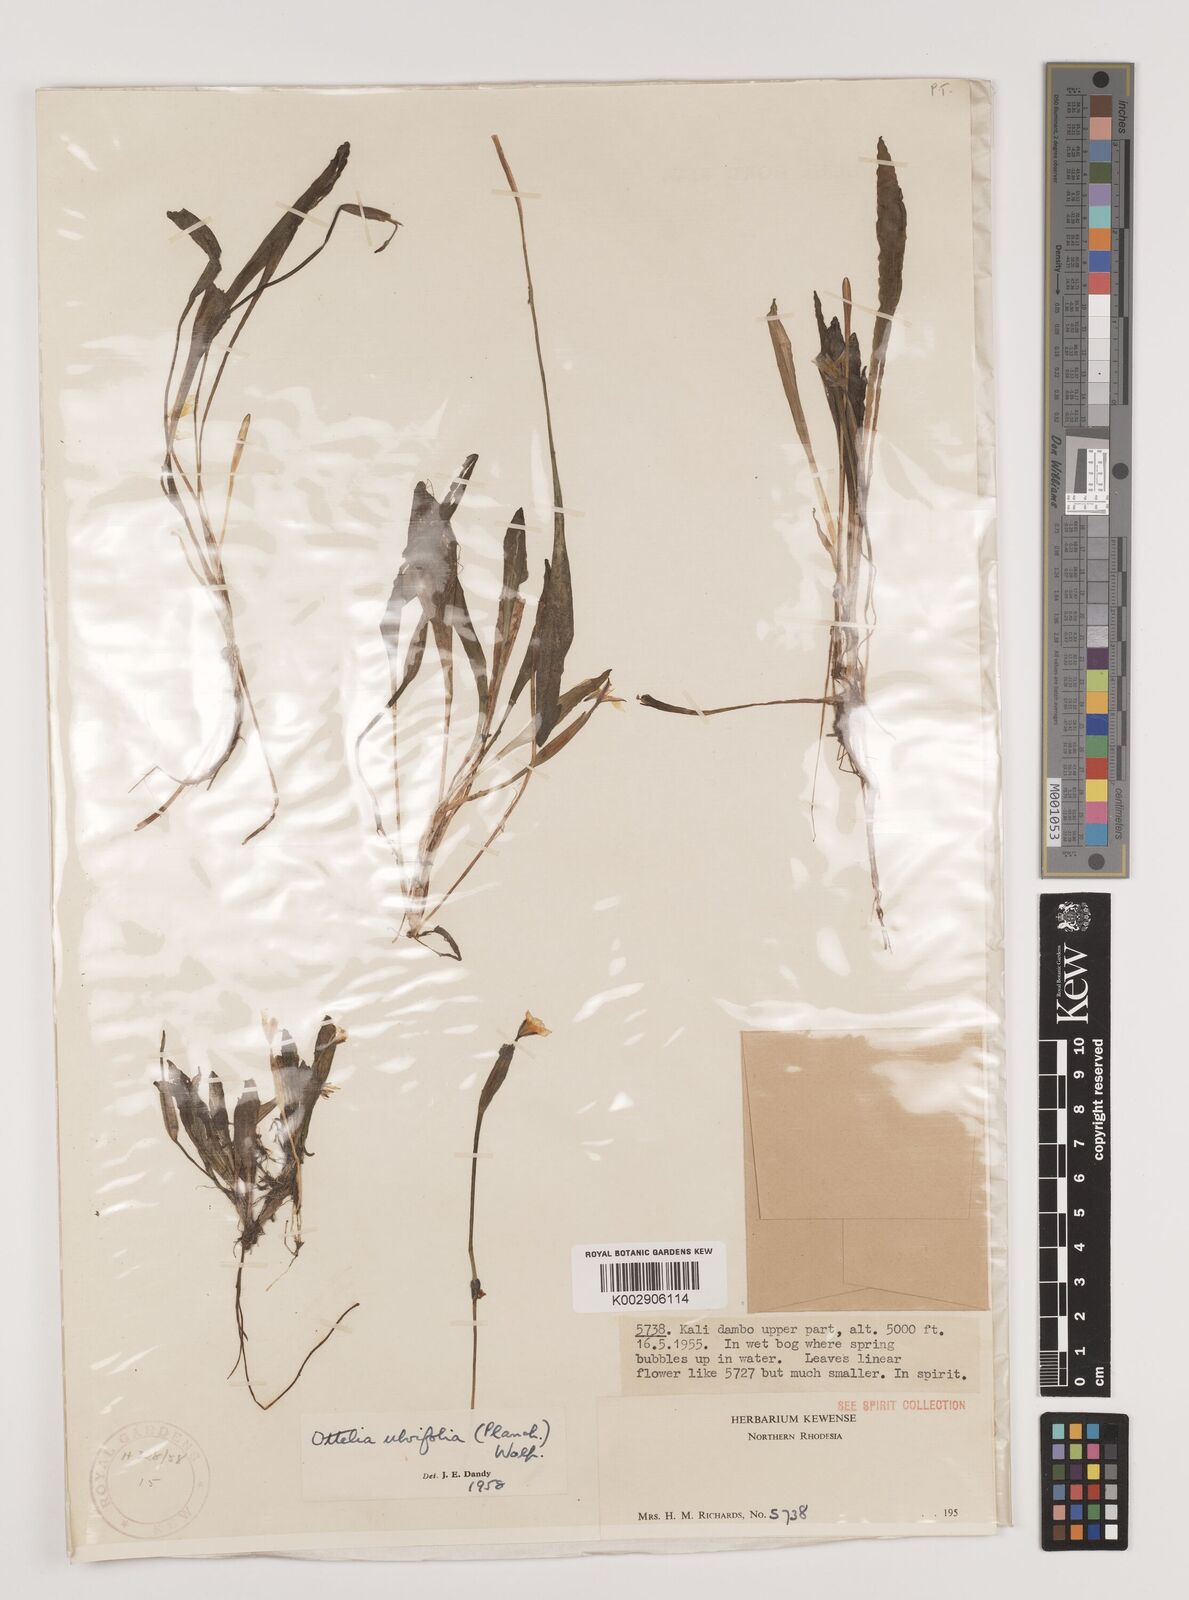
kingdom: Plantae
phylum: Tracheophyta
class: Liliopsida
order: Alismatales
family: Hydrocharitaceae
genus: Ottelia
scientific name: Ottelia ulvifolia
